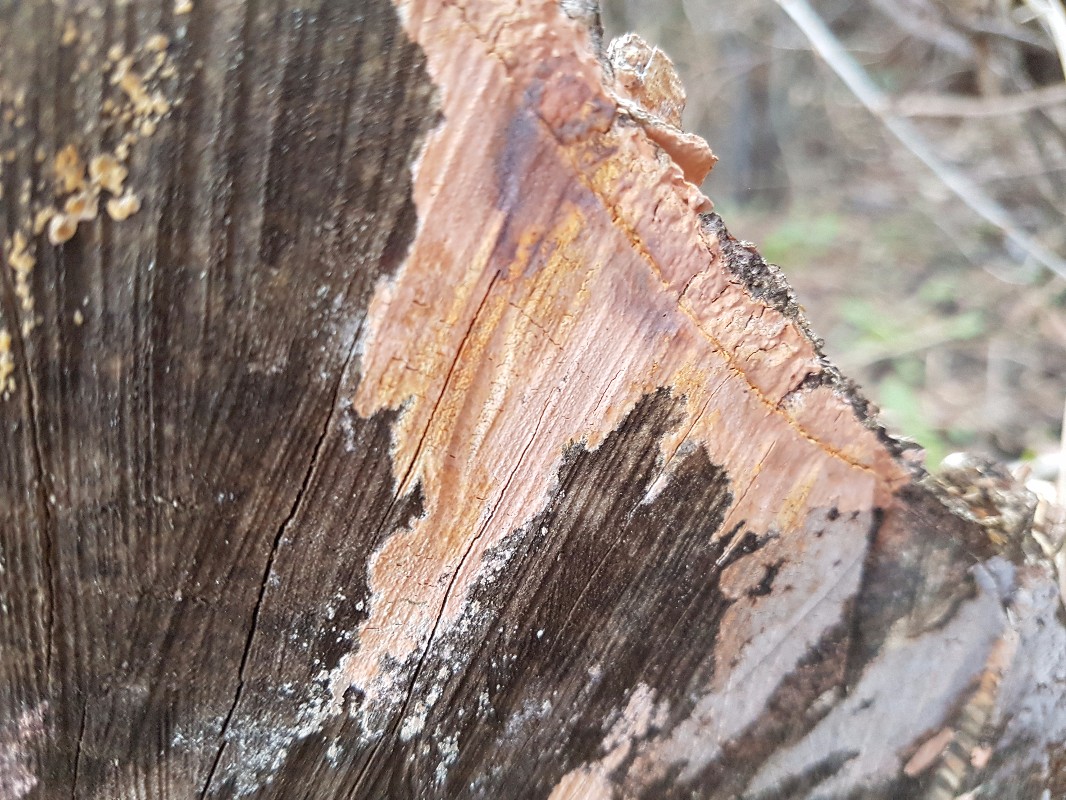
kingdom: Fungi
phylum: Basidiomycota
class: Agaricomycetes
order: Russulales
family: Peniophoraceae
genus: Peniophora
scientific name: Peniophora incarnata
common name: laksefarvet voksskind
